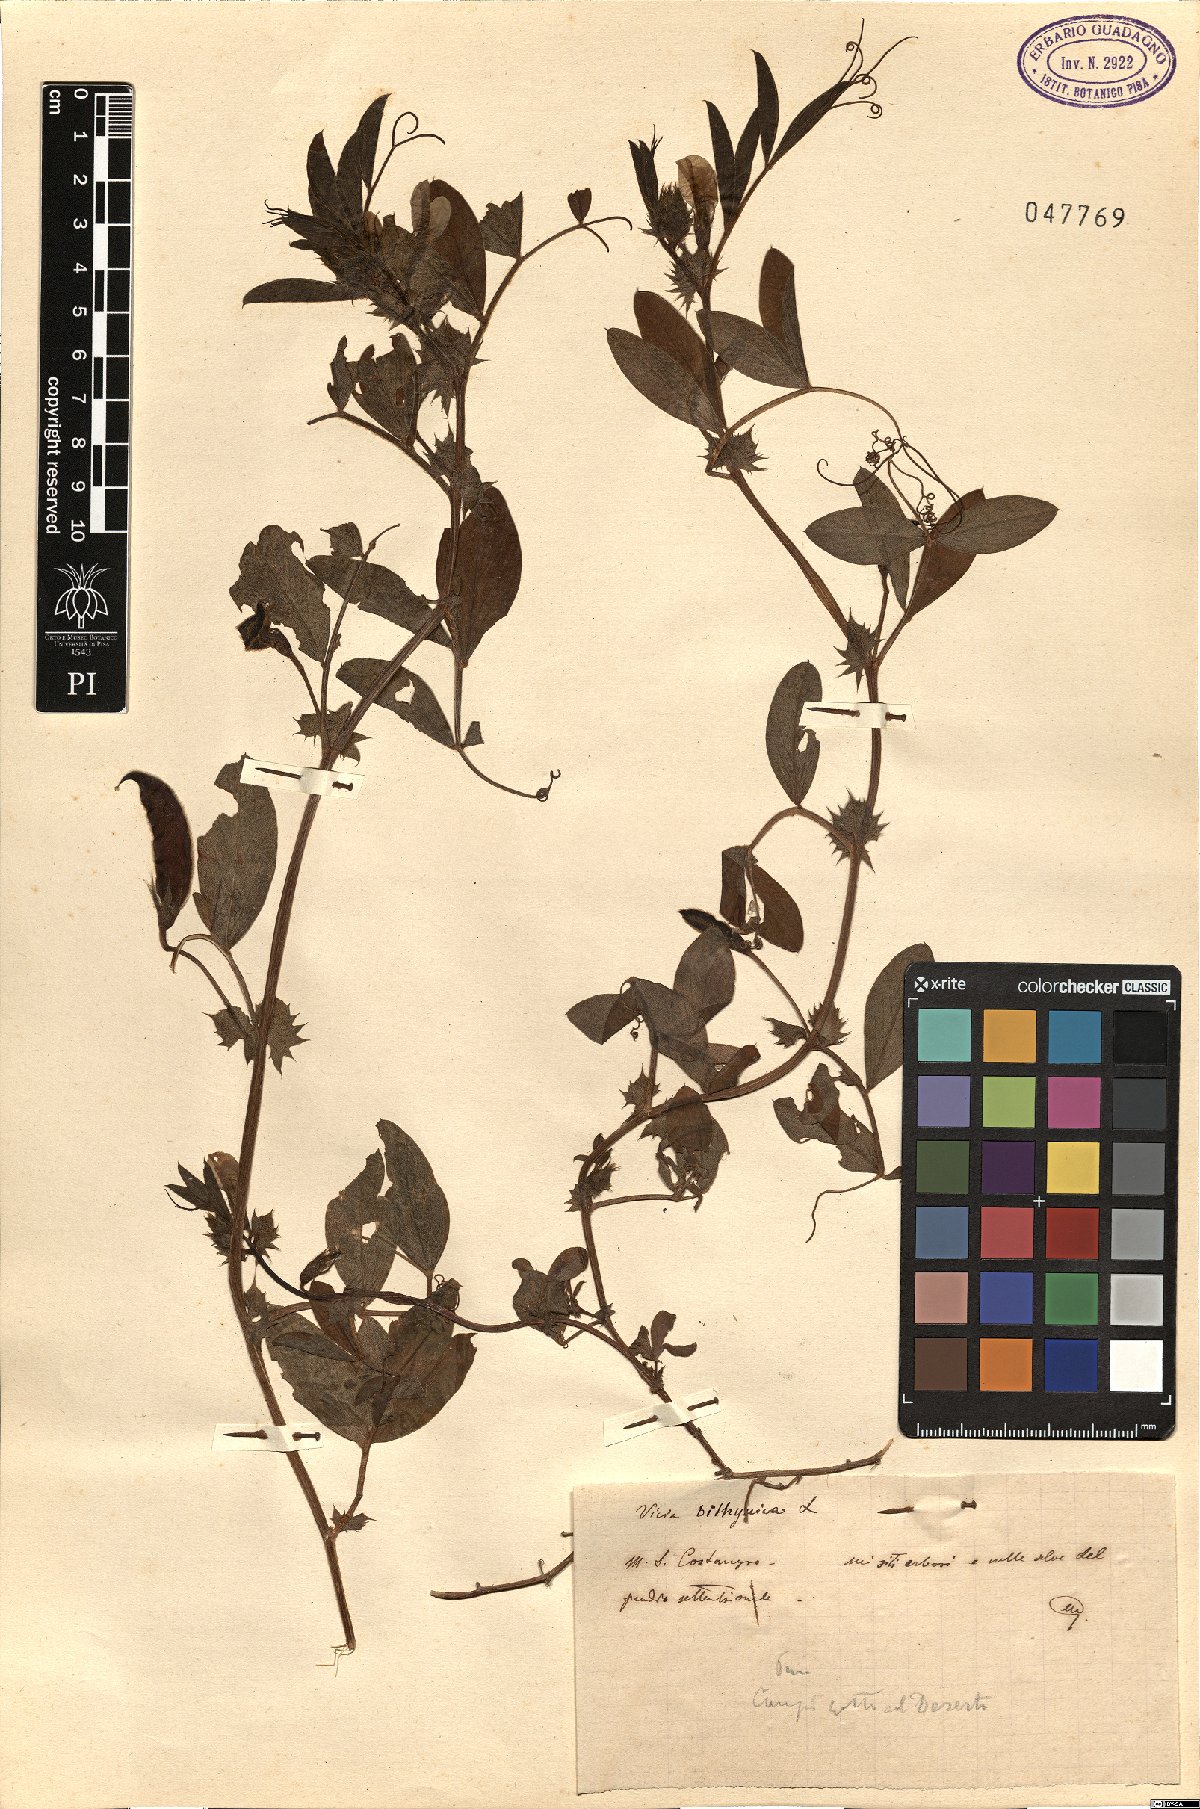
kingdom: Plantae
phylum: Tracheophyta
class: Magnoliopsida
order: Fabales
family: Fabaceae
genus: Vicia
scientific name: Vicia bithynica
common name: Bithynian vetch
